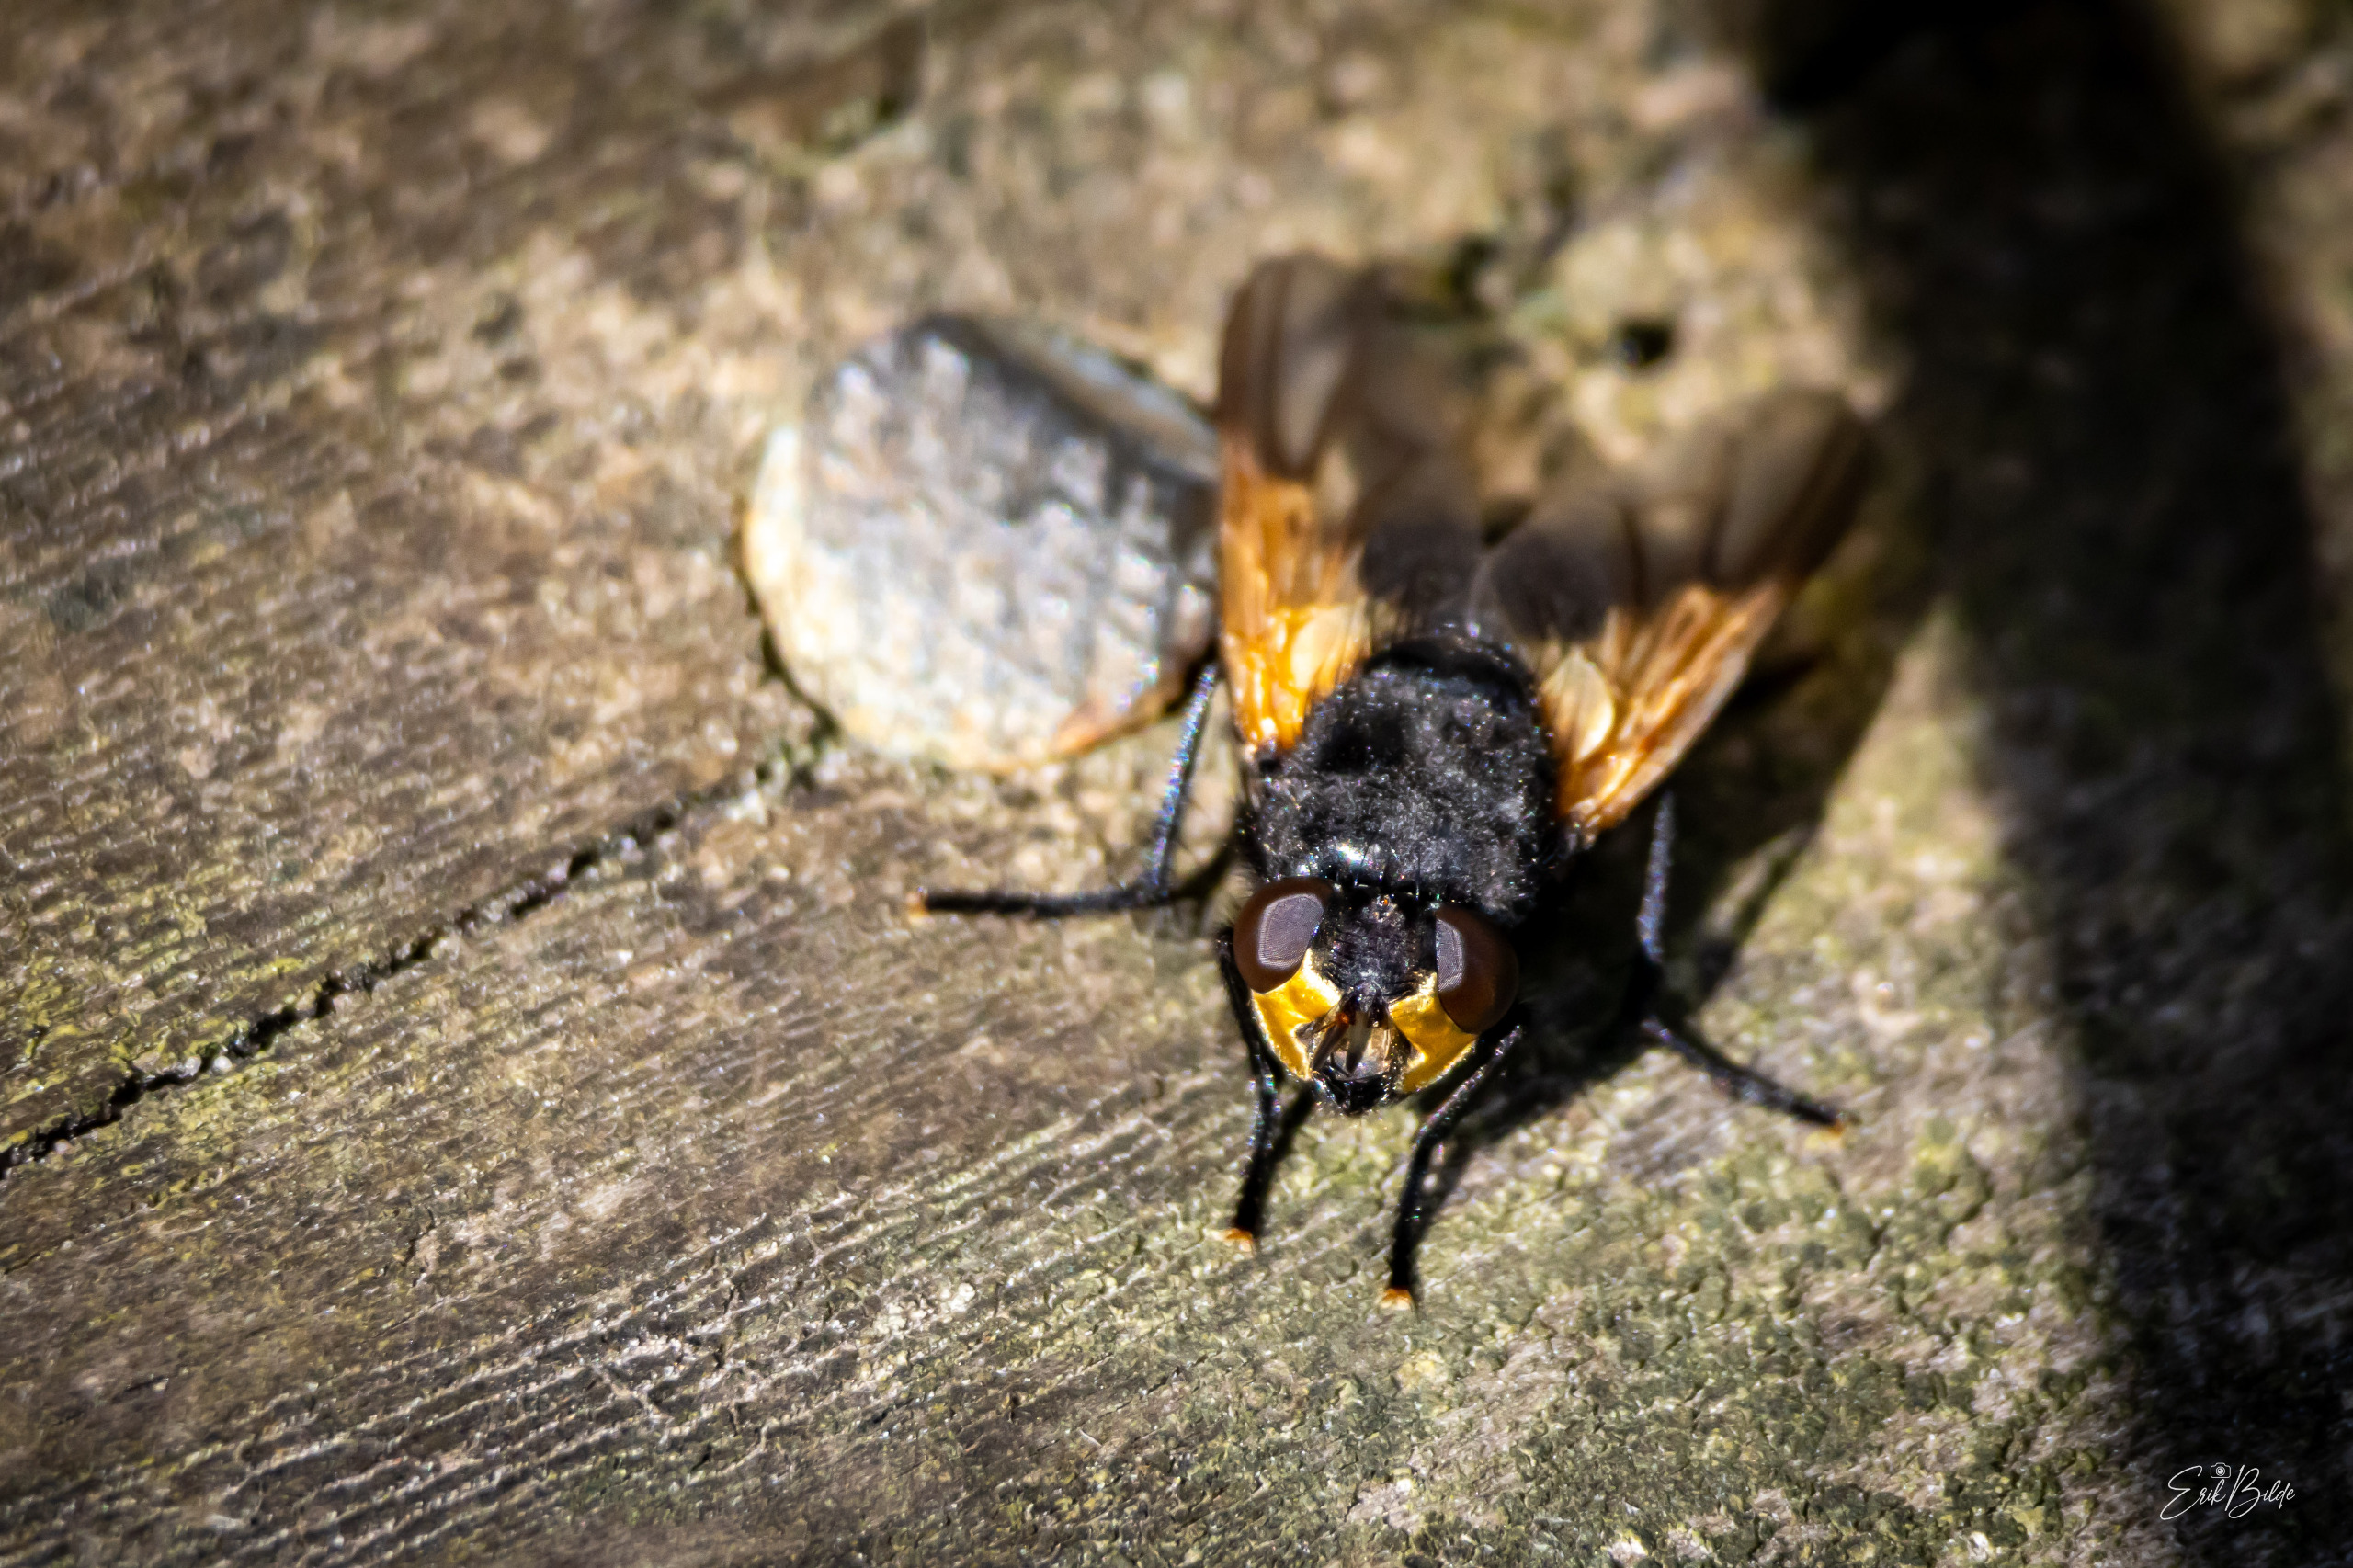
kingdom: Animalia
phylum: Arthropoda
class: Insecta
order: Diptera
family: Muscidae
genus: Mesembrina
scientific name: Mesembrina meridiana
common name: Gulvinget flue
